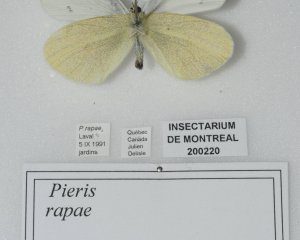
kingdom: Animalia
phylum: Arthropoda
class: Insecta
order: Lepidoptera
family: Pieridae
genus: Pieris
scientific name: Pieris rapae
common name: Cabbage White
